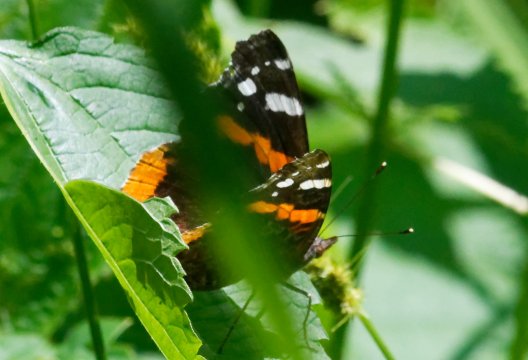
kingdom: Animalia
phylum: Arthropoda
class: Insecta
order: Lepidoptera
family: Nymphalidae
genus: Vanessa
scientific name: Vanessa atalanta
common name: Red Admiral
